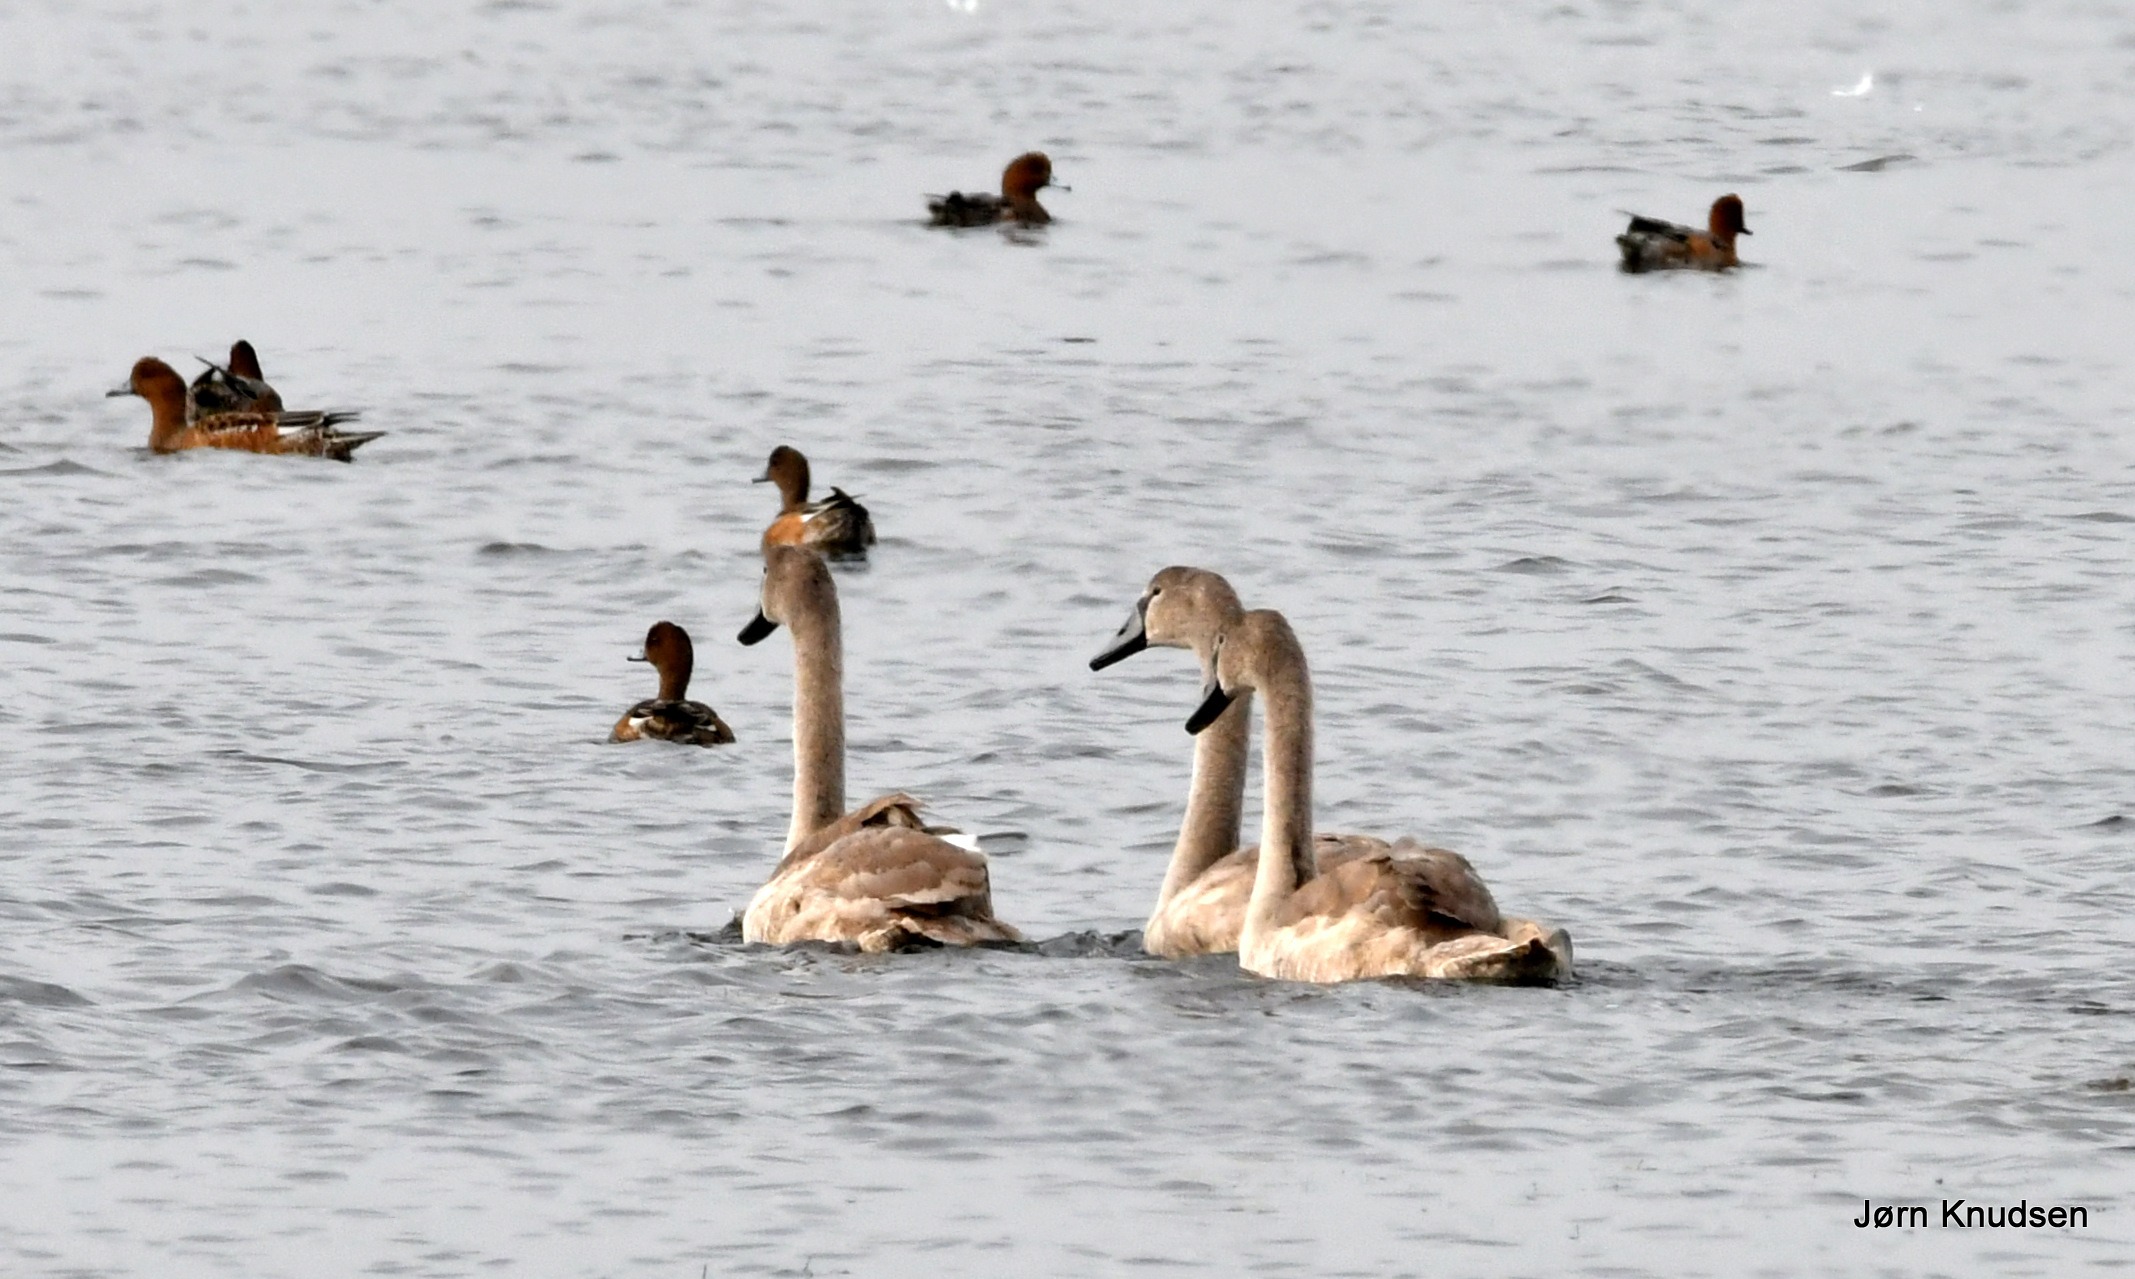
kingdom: Animalia
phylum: Chordata
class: Aves
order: Anseriformes
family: Anatidae
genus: Cygnus
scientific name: Cygnus olor
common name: Knopsvane
